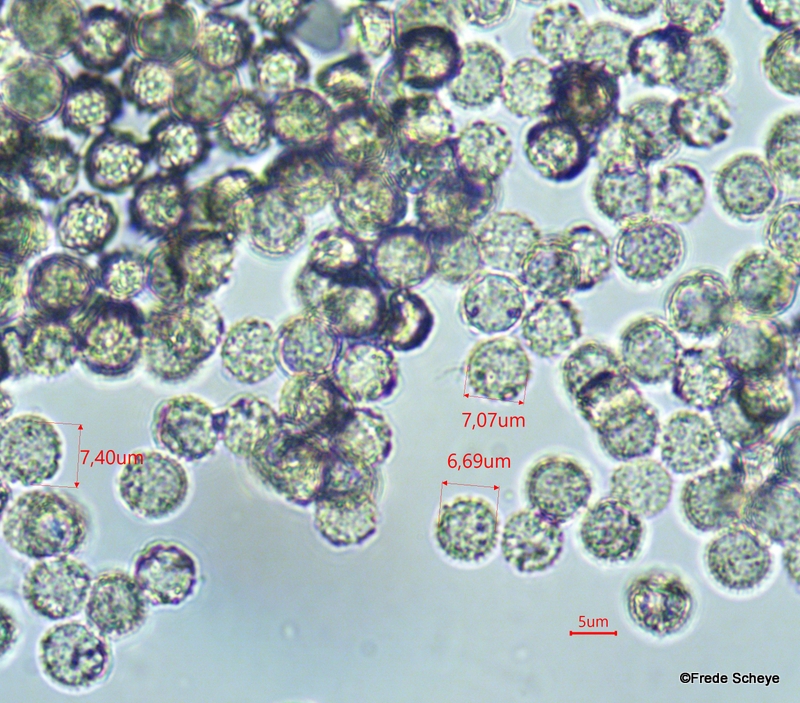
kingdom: Protozoa
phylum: Mycetozoa
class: Myxomycetes
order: Cribrariales
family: Tubiferaceae
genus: Lycogala
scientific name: Lycogala epidendrum
